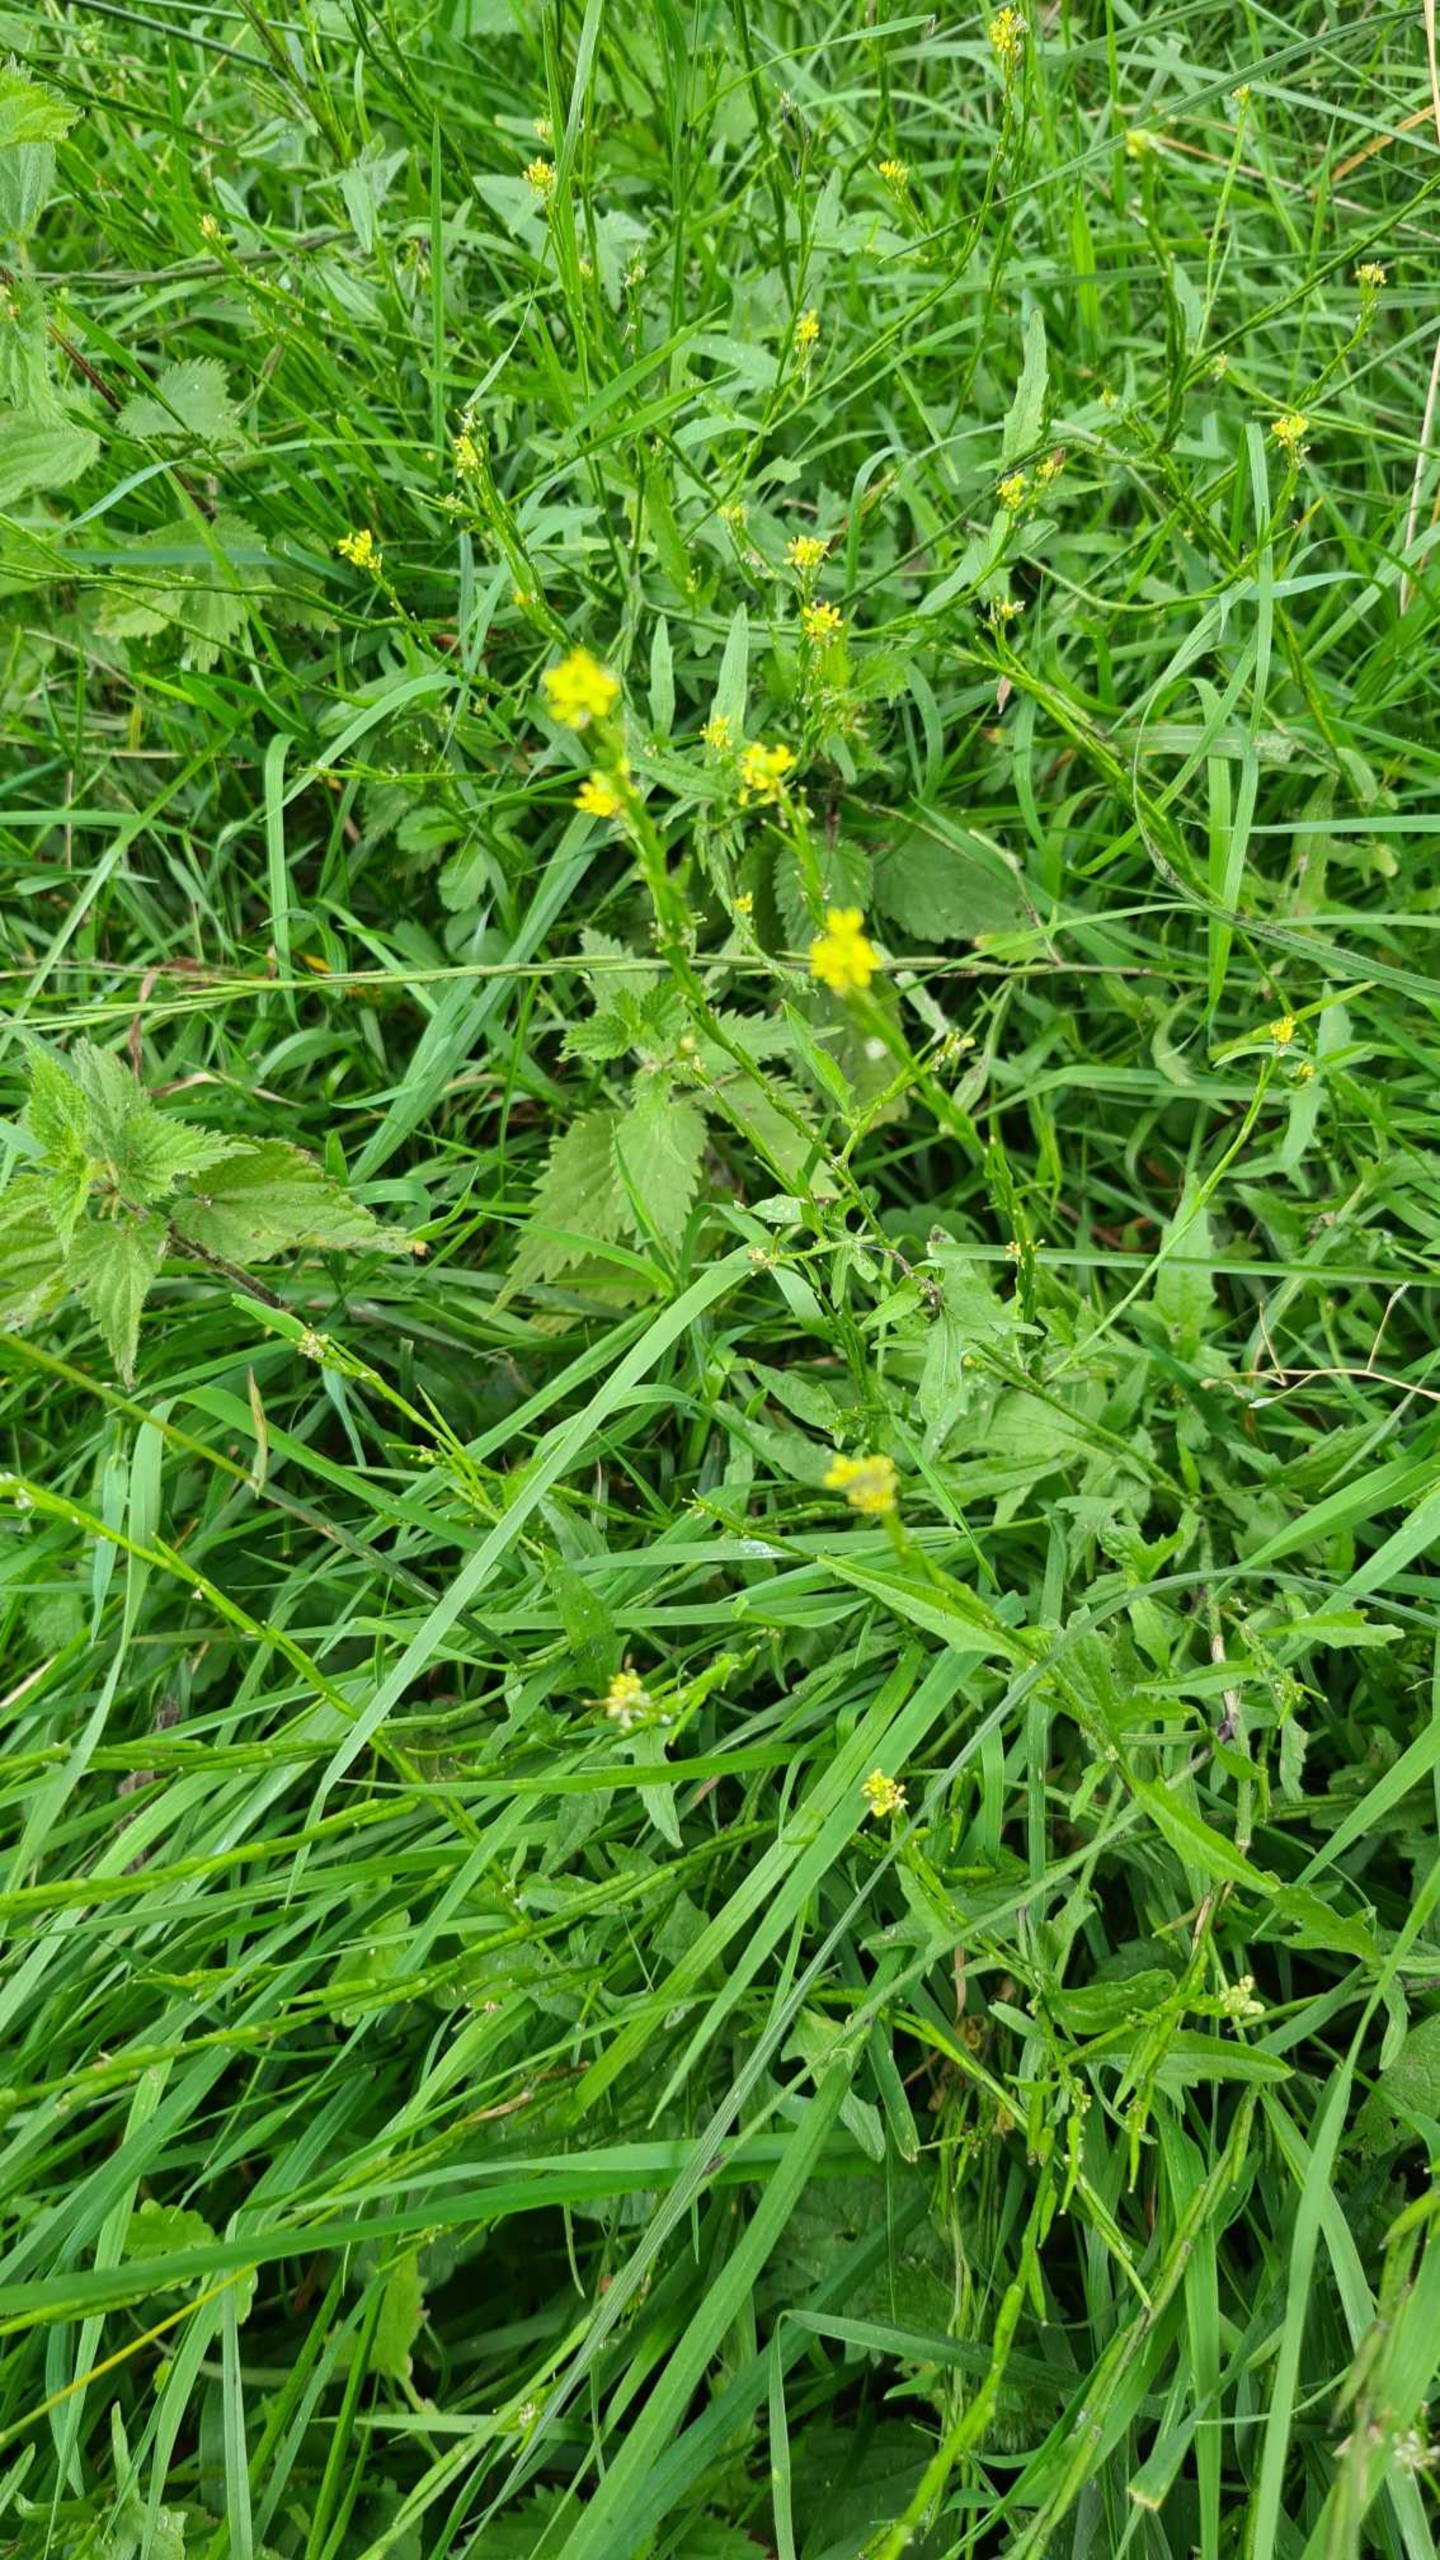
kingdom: Plantae
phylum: Tracheophyta
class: Magnoliopsida
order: Brassicales
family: Brassicaceae
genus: Sisymbrium
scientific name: Sisymbrium officinale
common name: Rank vejsennep
